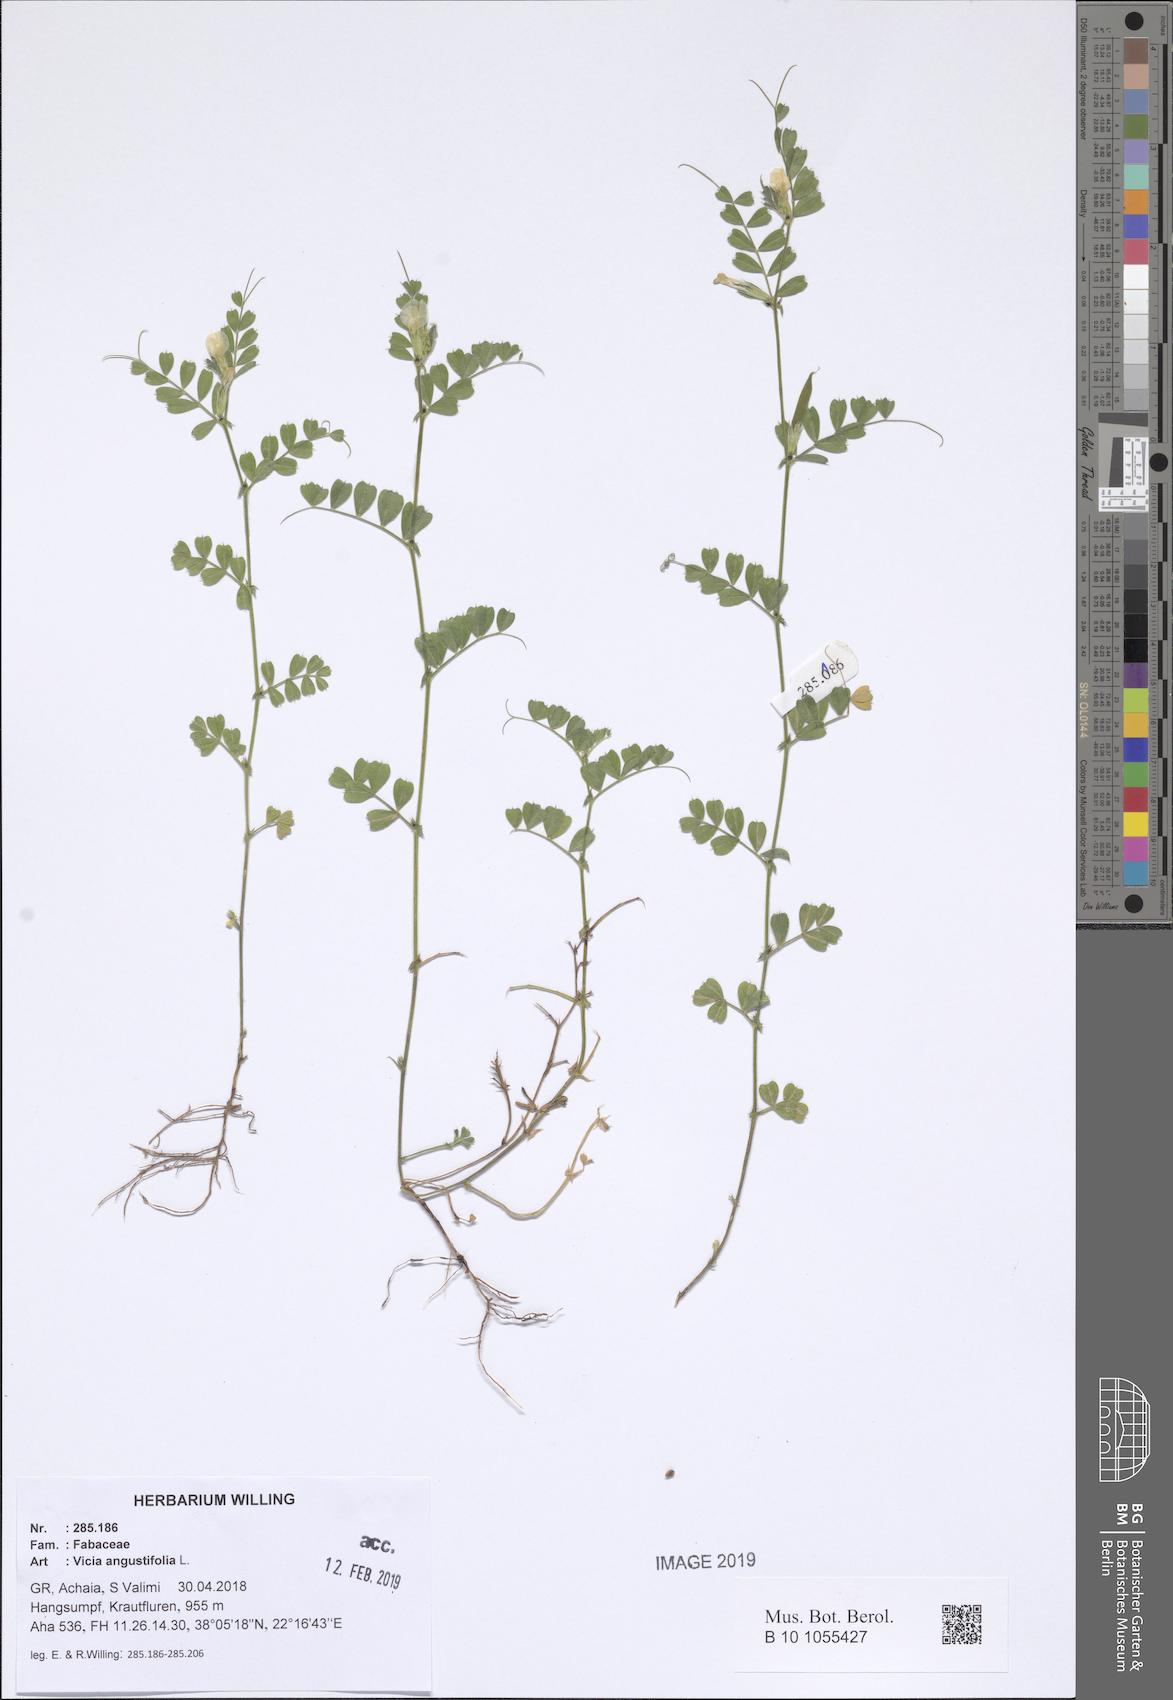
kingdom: Plantae
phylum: Tracheophyta
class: Magnoliopsida
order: Fabales
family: Fabaceae
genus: Vicia
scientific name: Vicia sativa
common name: Garden vetch
